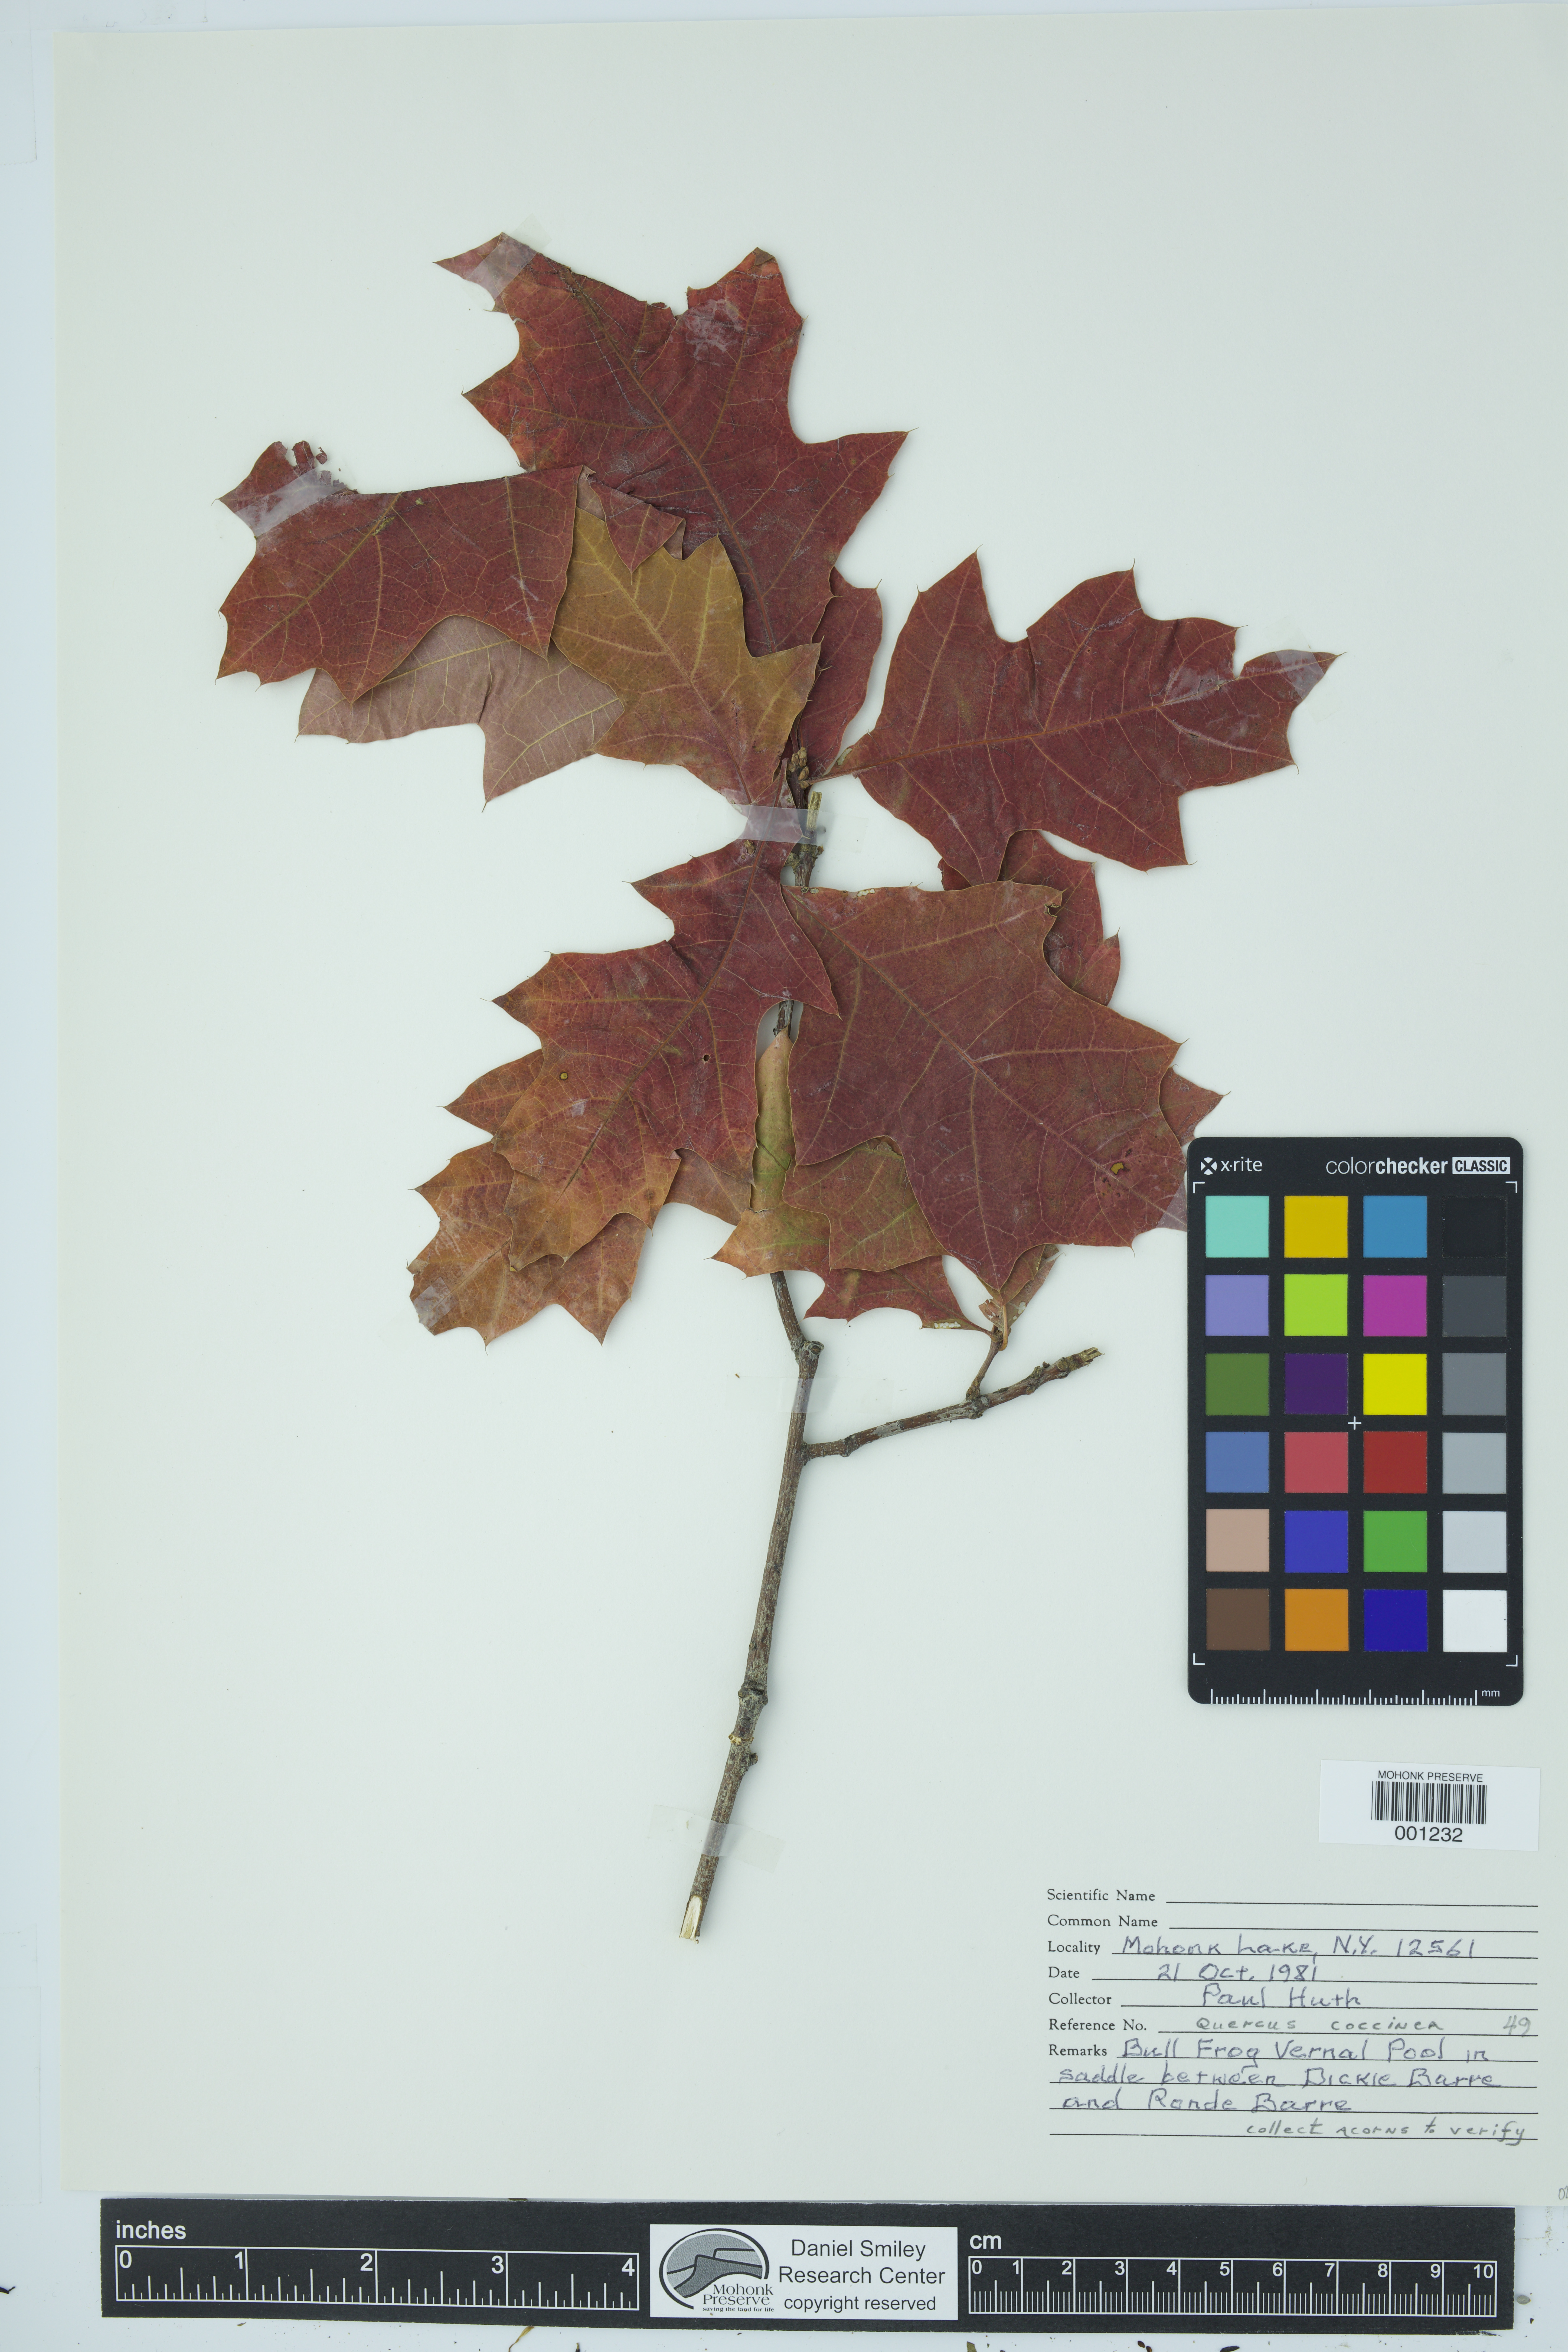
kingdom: Plantae
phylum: Tracheophyta
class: Magnoliopsida
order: Fagales
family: Fagaceae
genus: Quercus
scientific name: Quercus coccinea
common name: Scarlet oak
